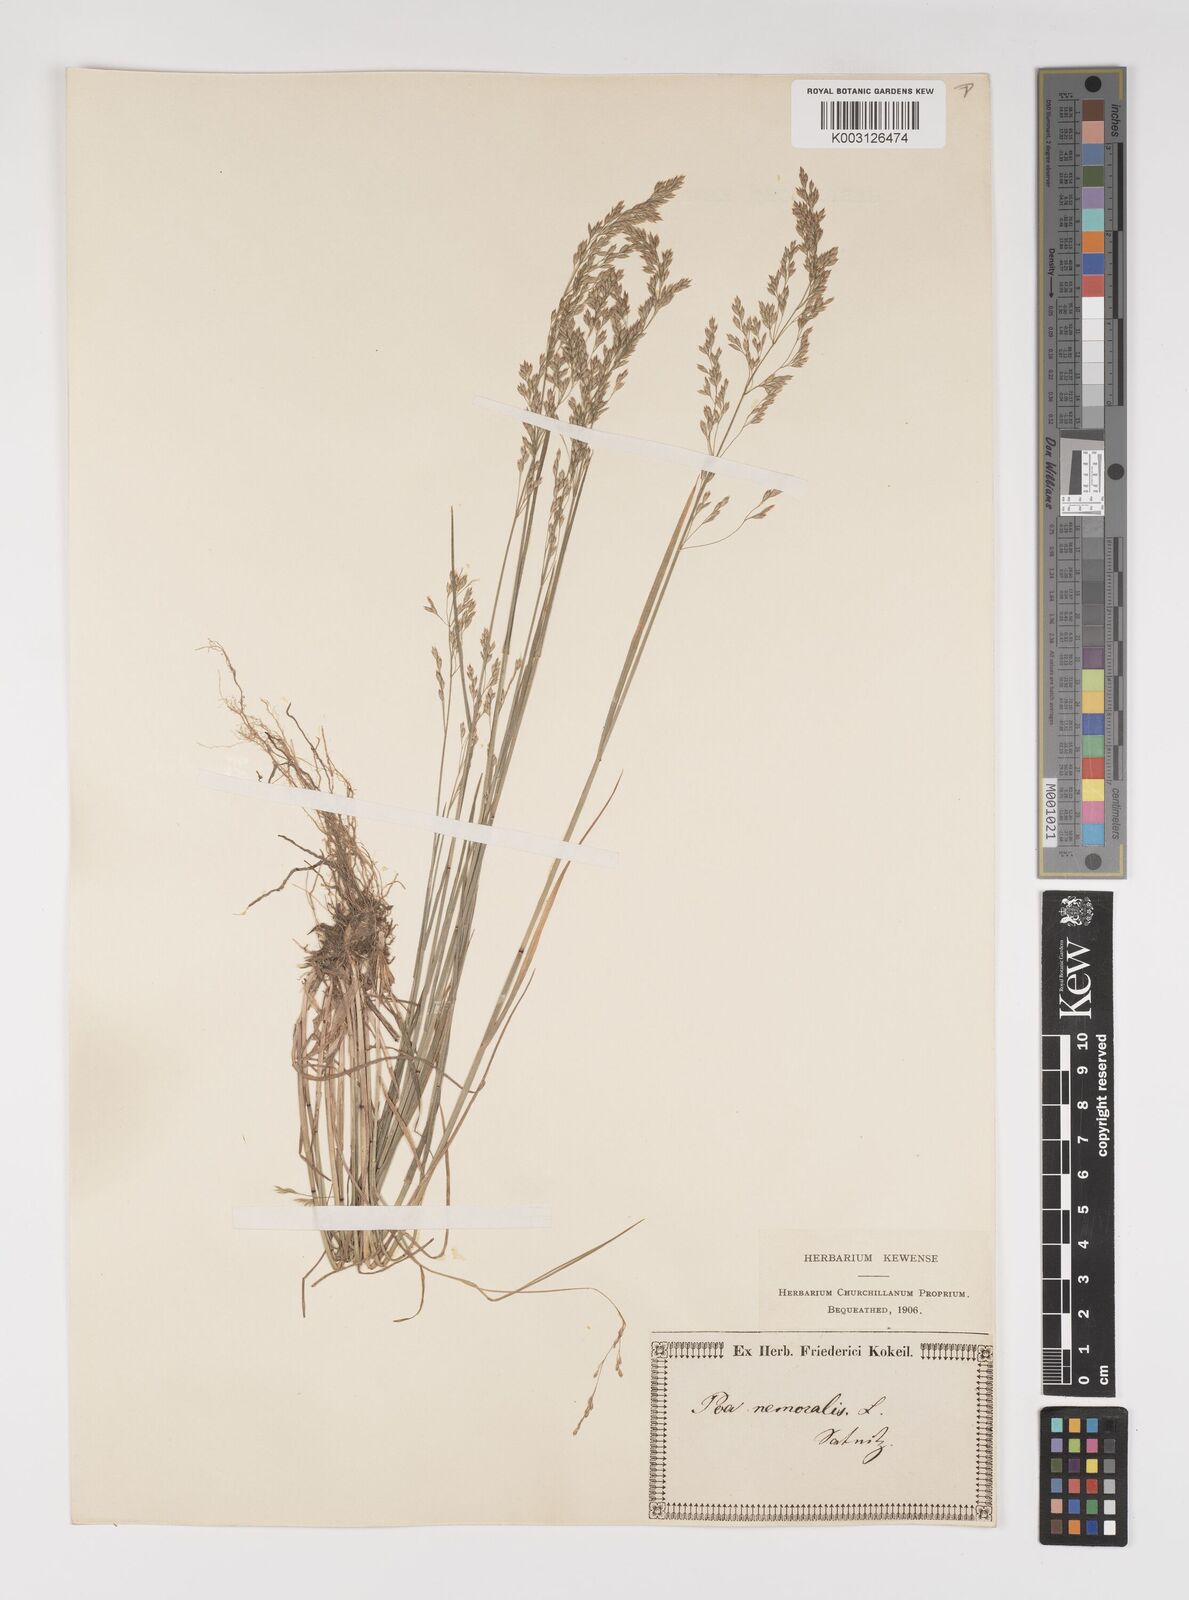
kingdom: Plantae
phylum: Tracheophyta
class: Liliopsida
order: Poales
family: Poaceae
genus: Poa
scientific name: Poa nemoralis
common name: Wood bluegrass
